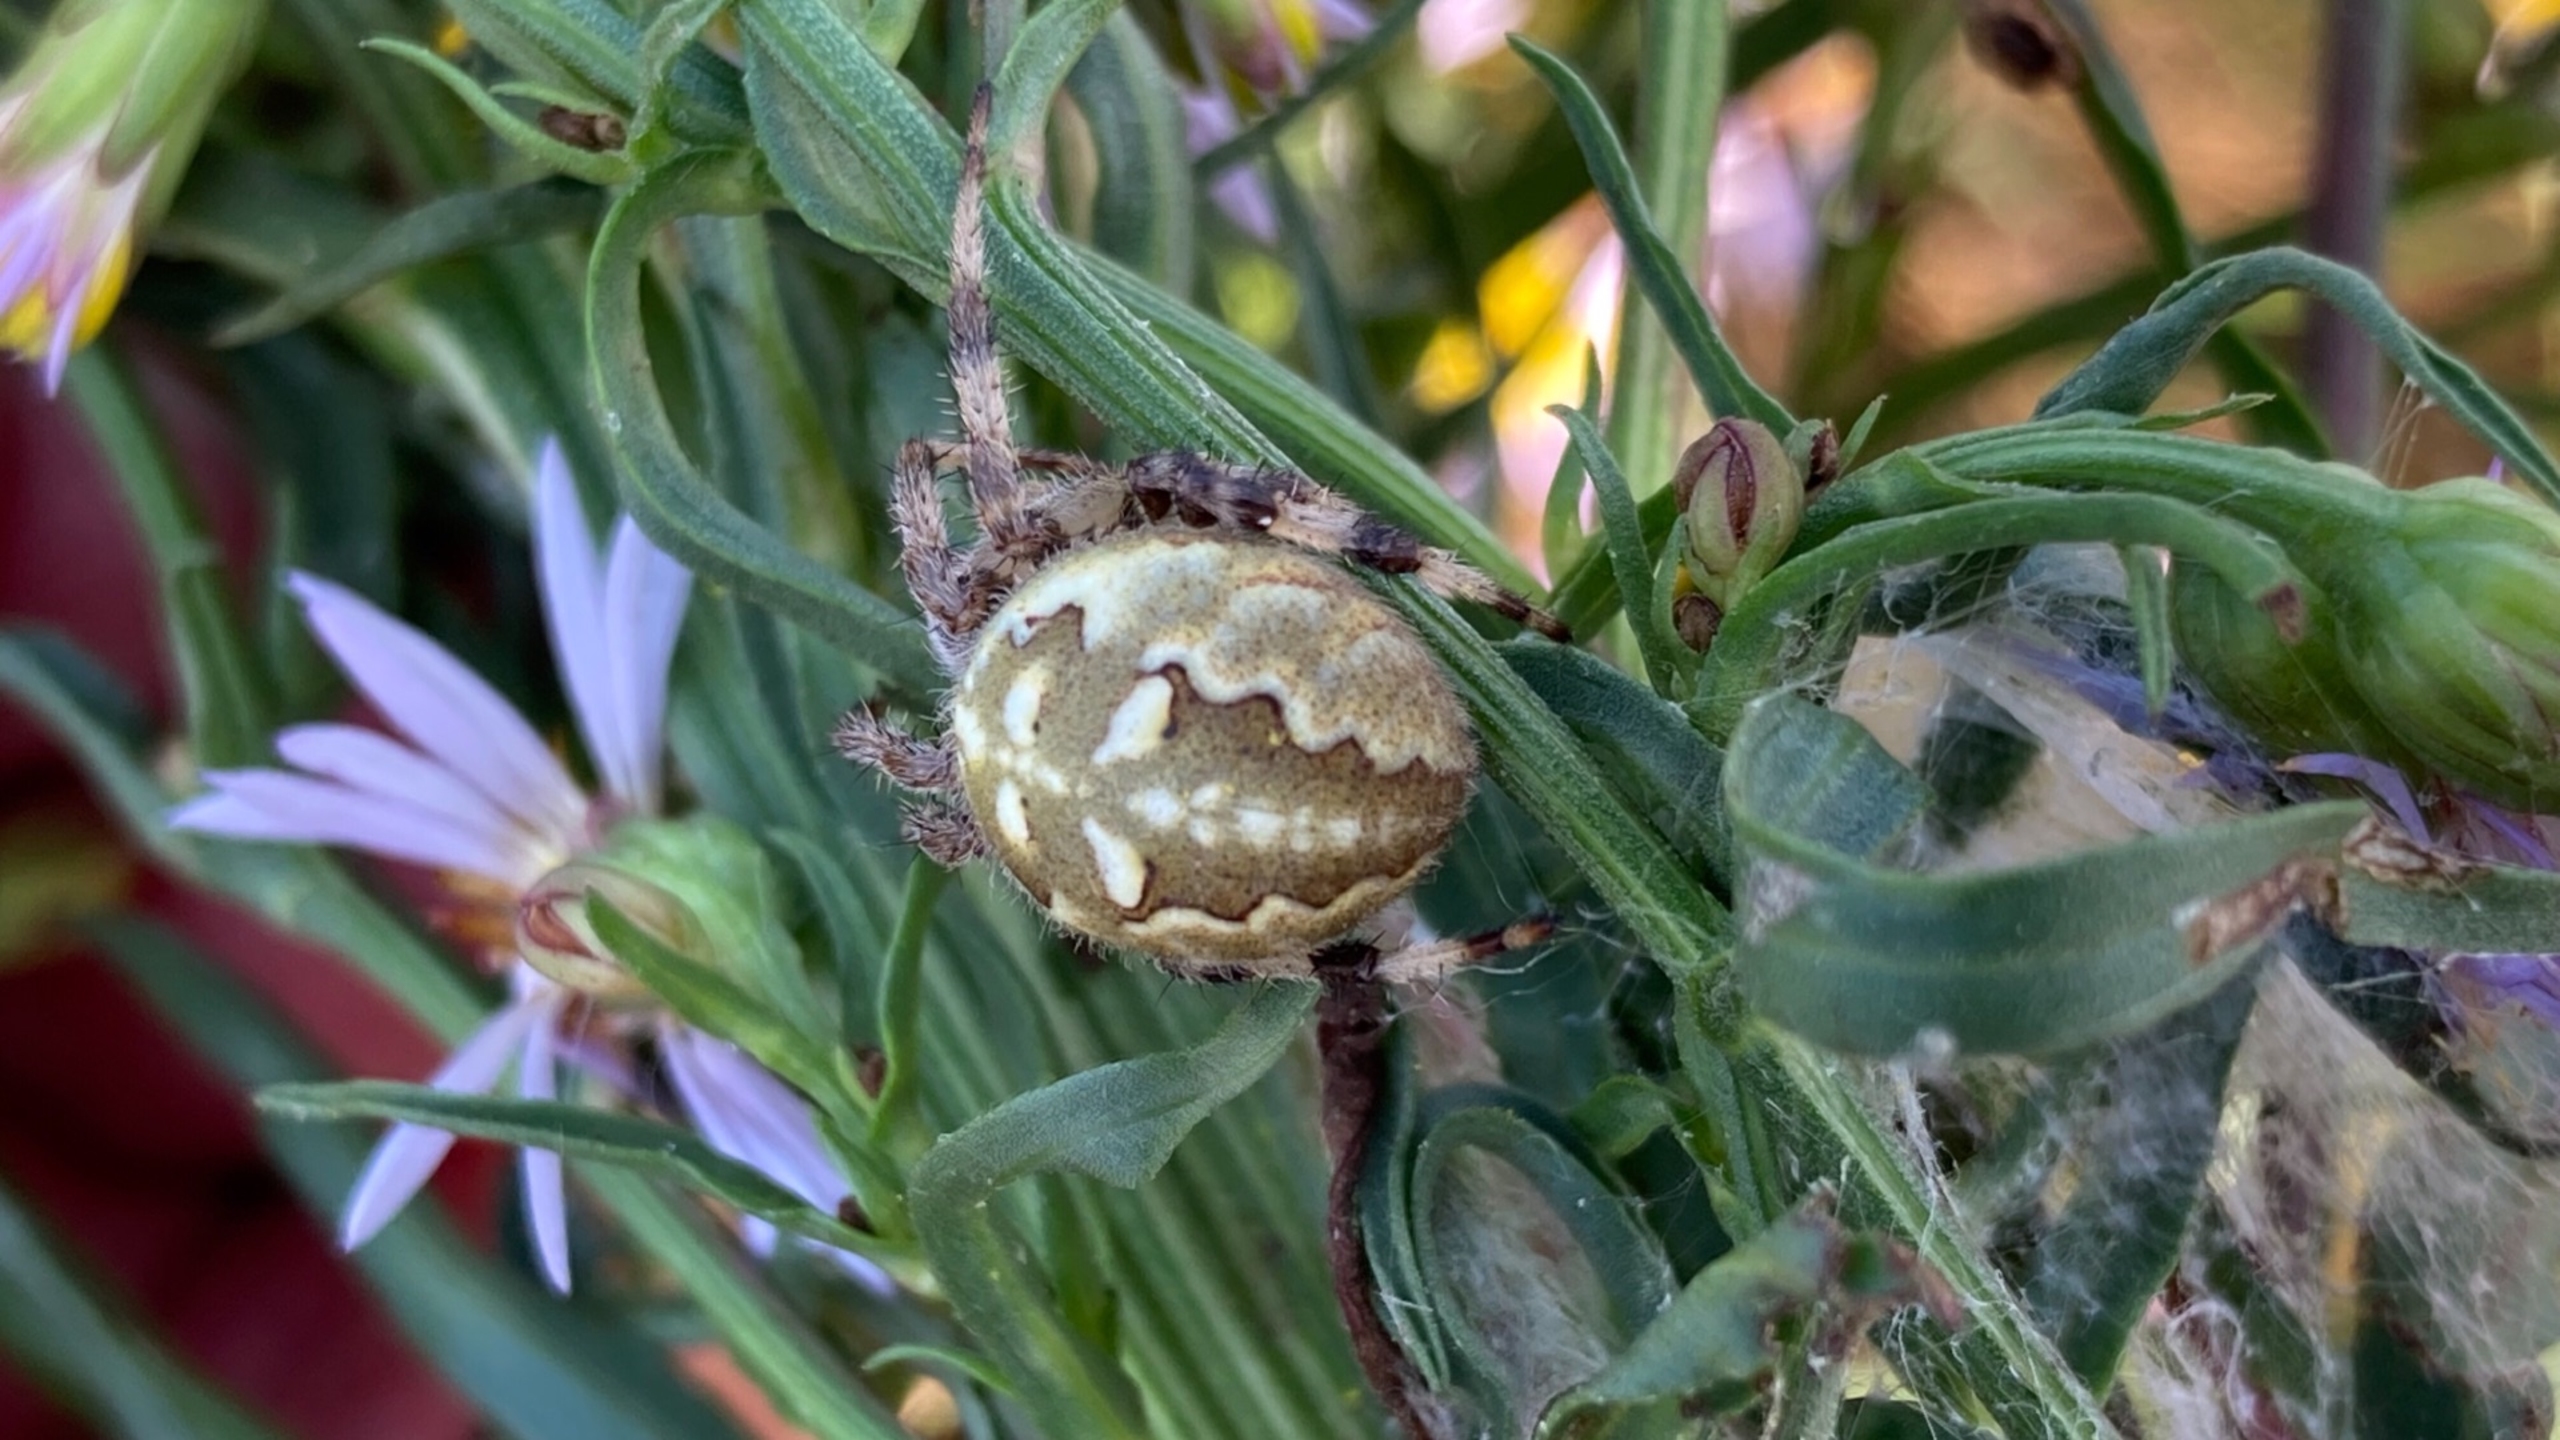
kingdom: Animalia
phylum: Arthropoda
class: Arachnida
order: Araneae
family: Araneidae
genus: Argiope
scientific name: Argiope bruennichi
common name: Hvepseedderkop
